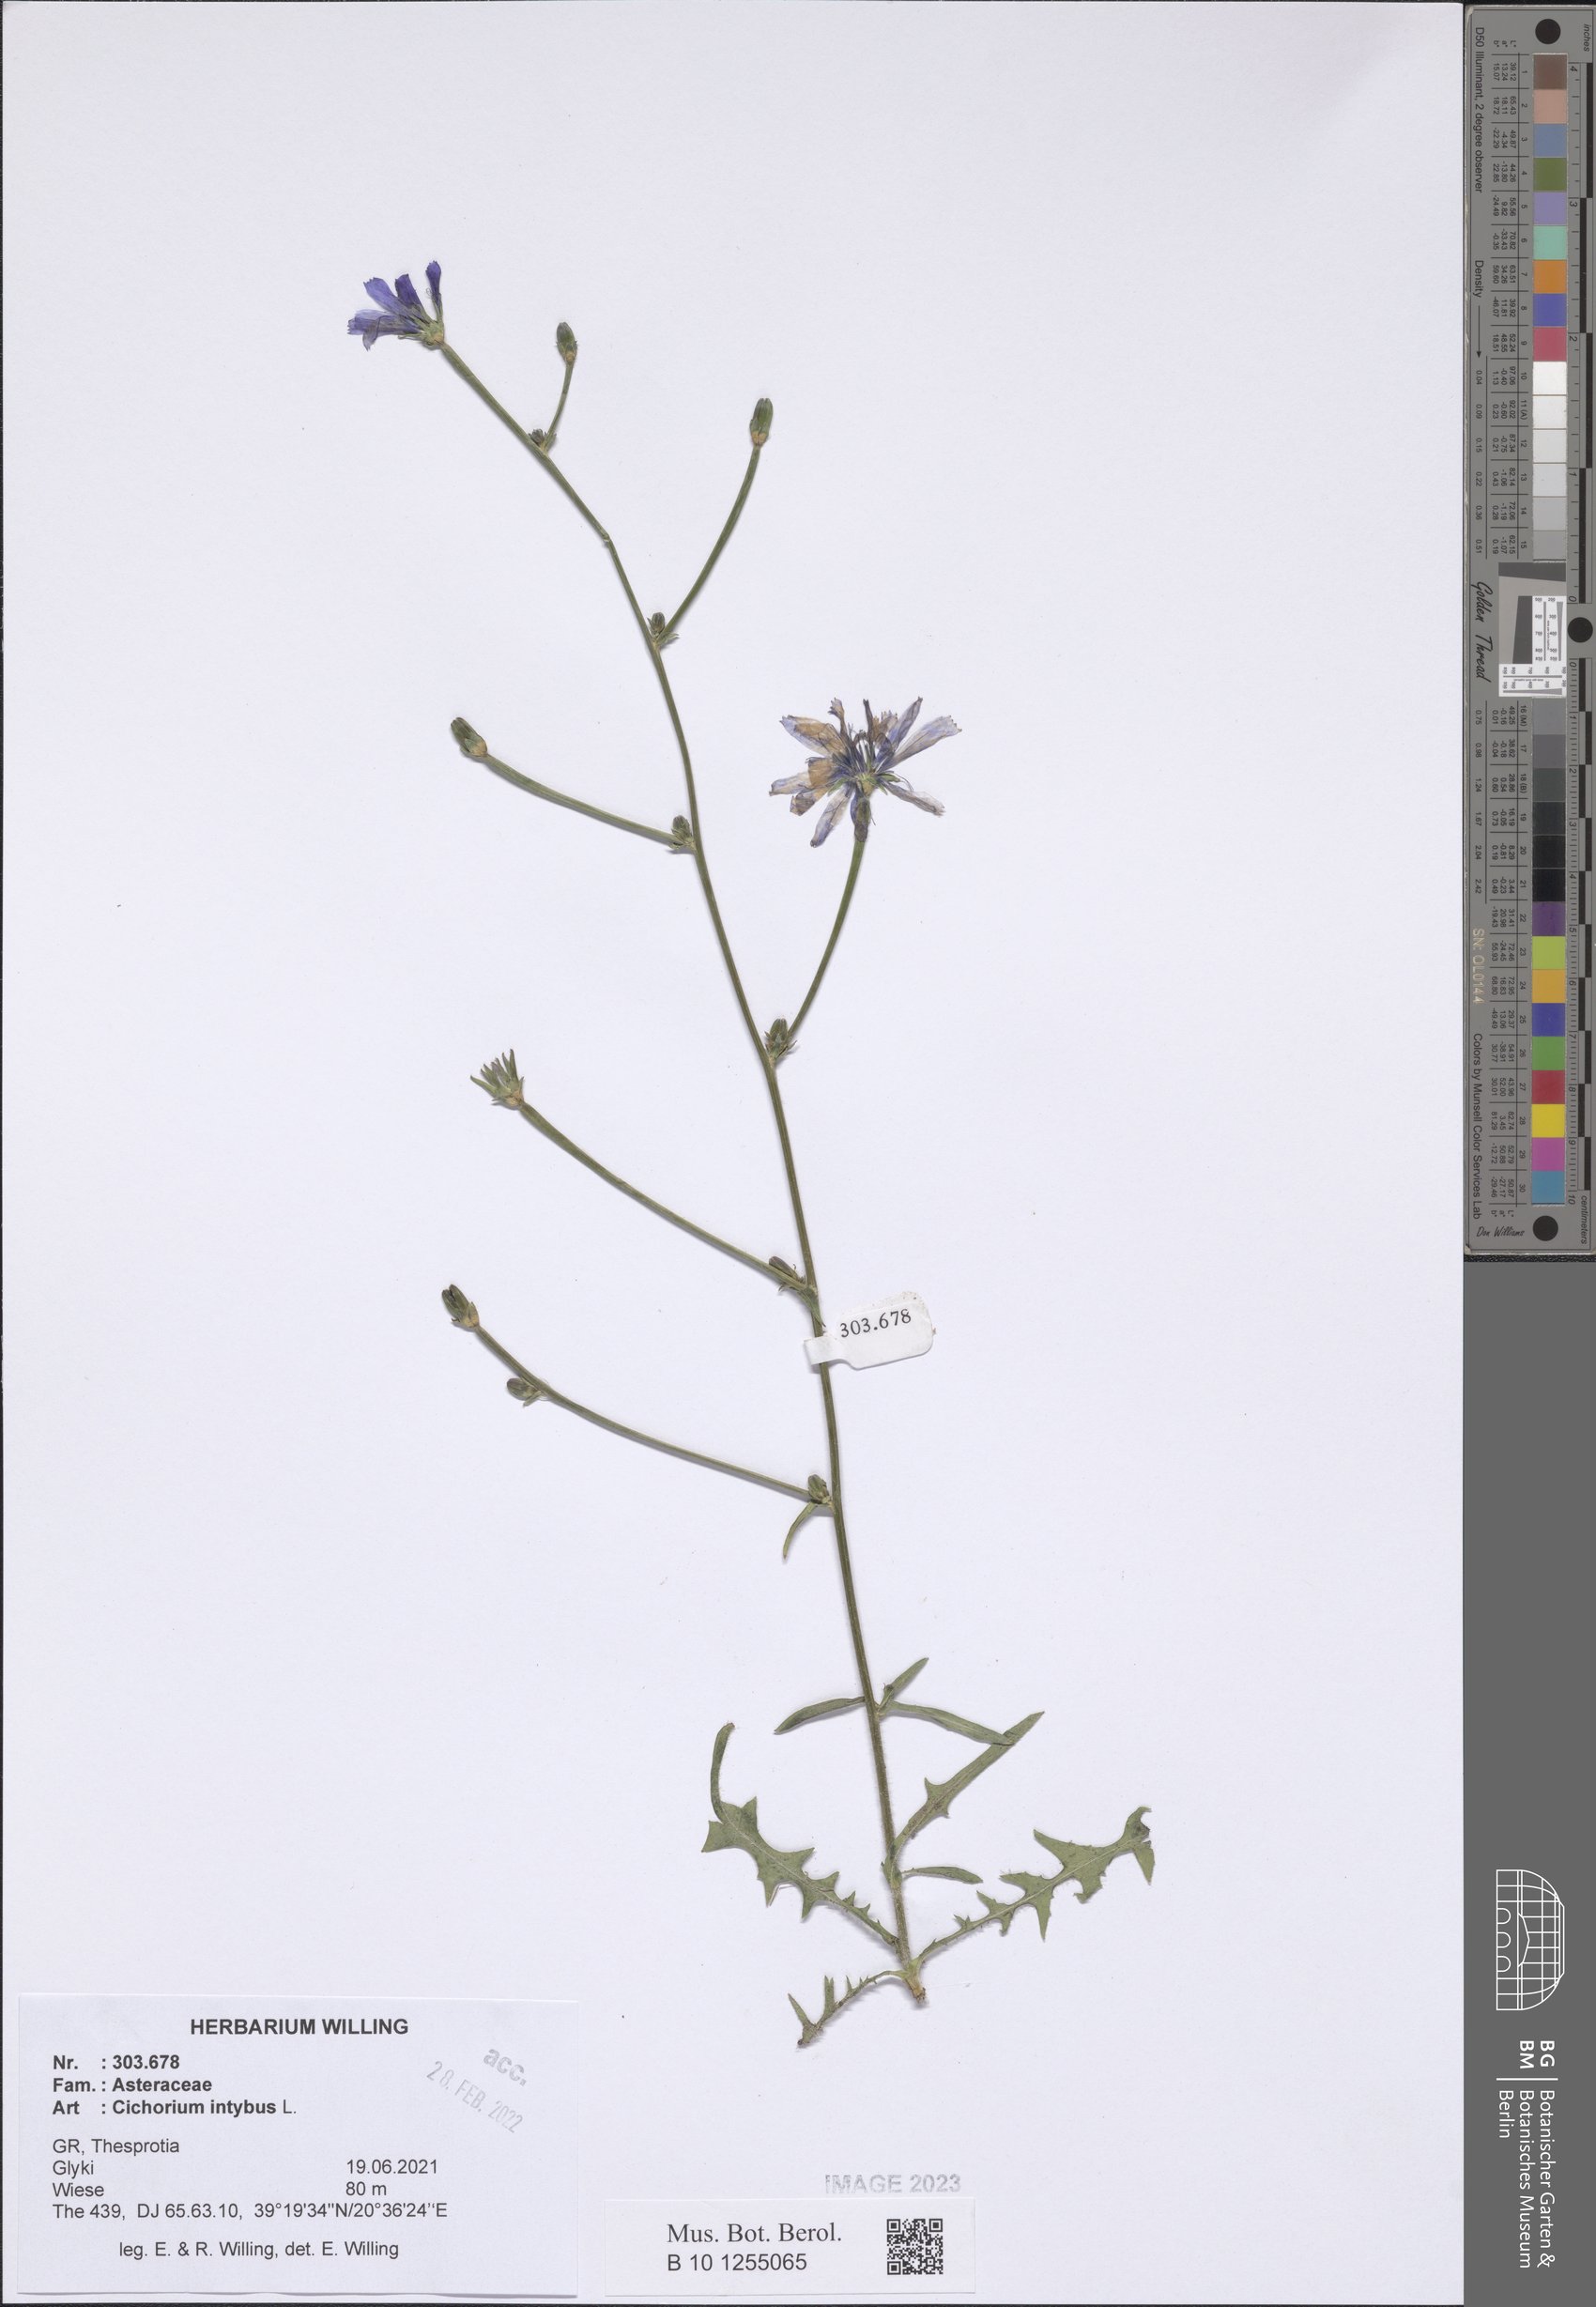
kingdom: Plantae
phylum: Tracheophyta
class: Magnoliopsida
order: Asterales
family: Asteraceae
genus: Cichorium
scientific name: Cichorium intybus
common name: Chicory
